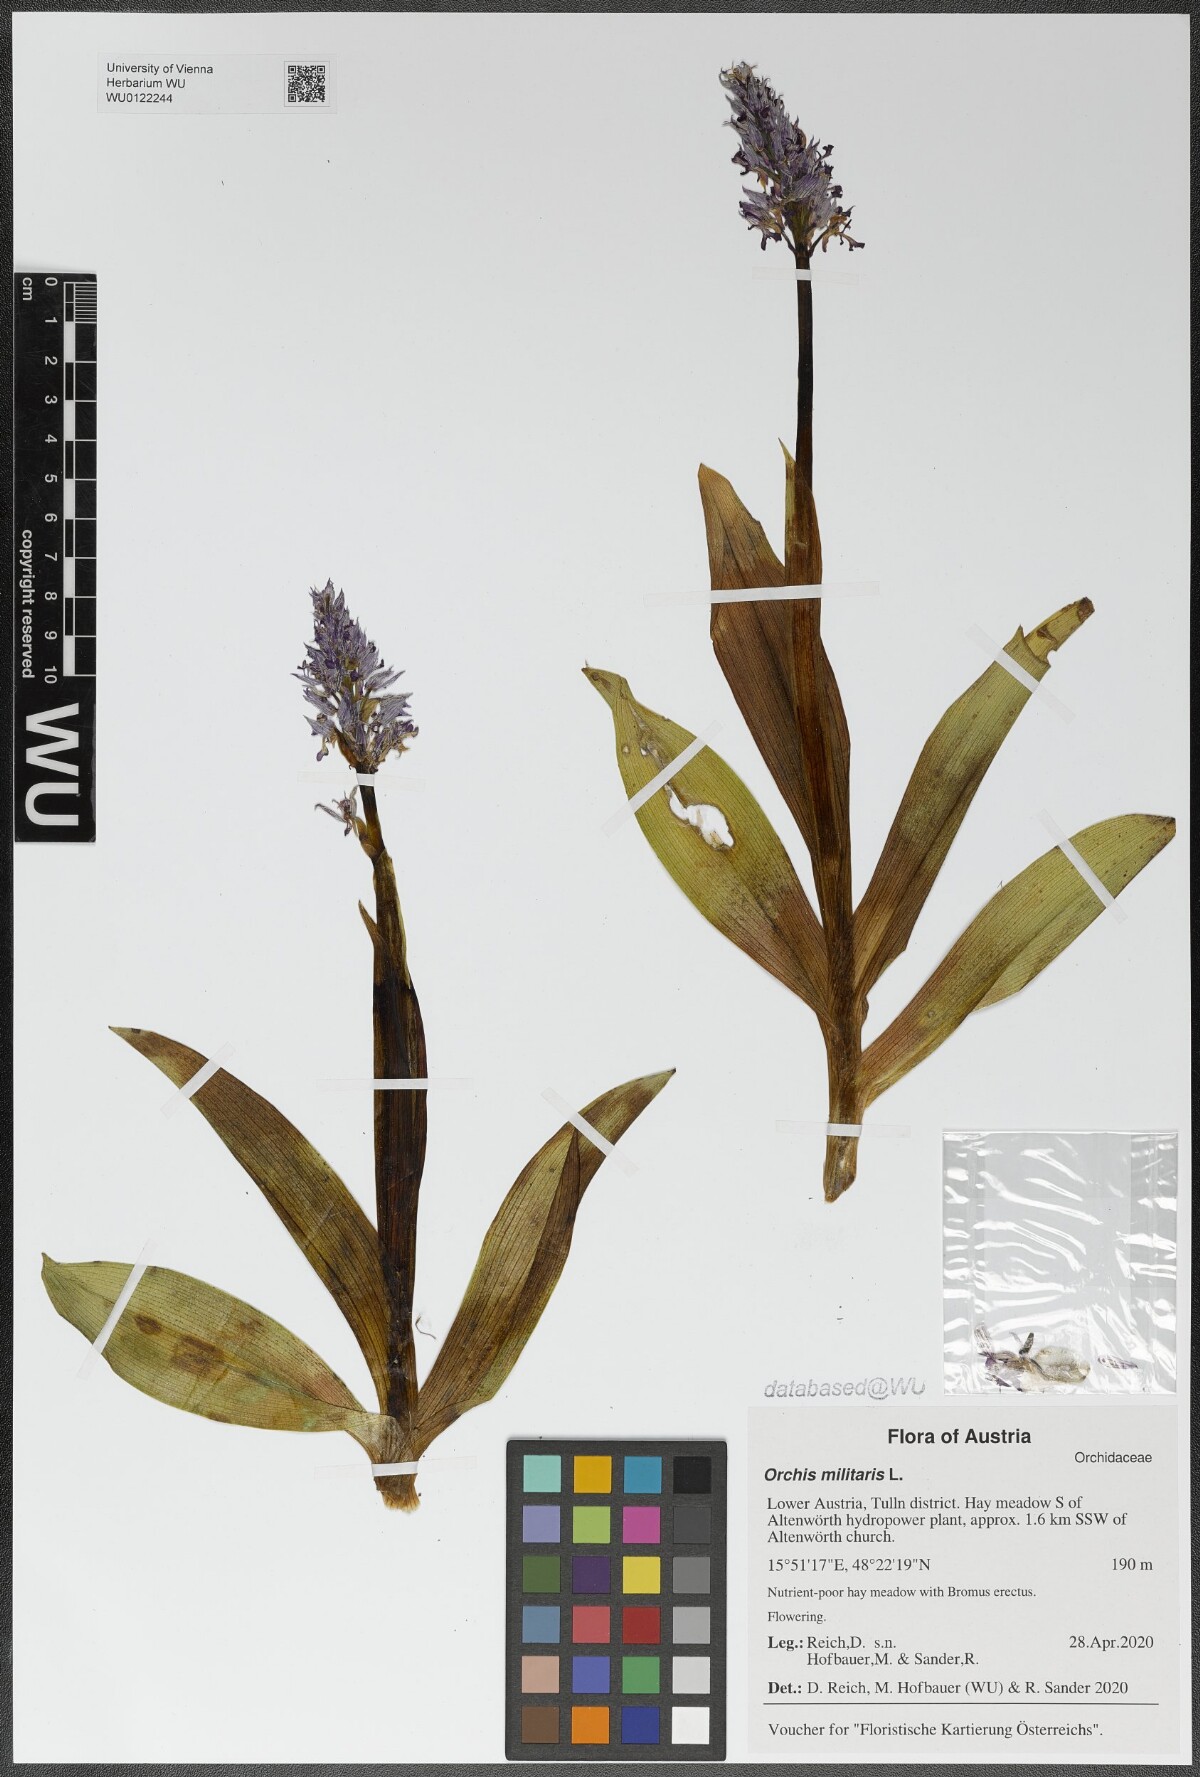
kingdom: Plantae
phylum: Tracheophyta
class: Liliopsida
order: Asparagales
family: Orchidaceae
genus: Orchis
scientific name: Orchis militaris
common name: Military orchid
